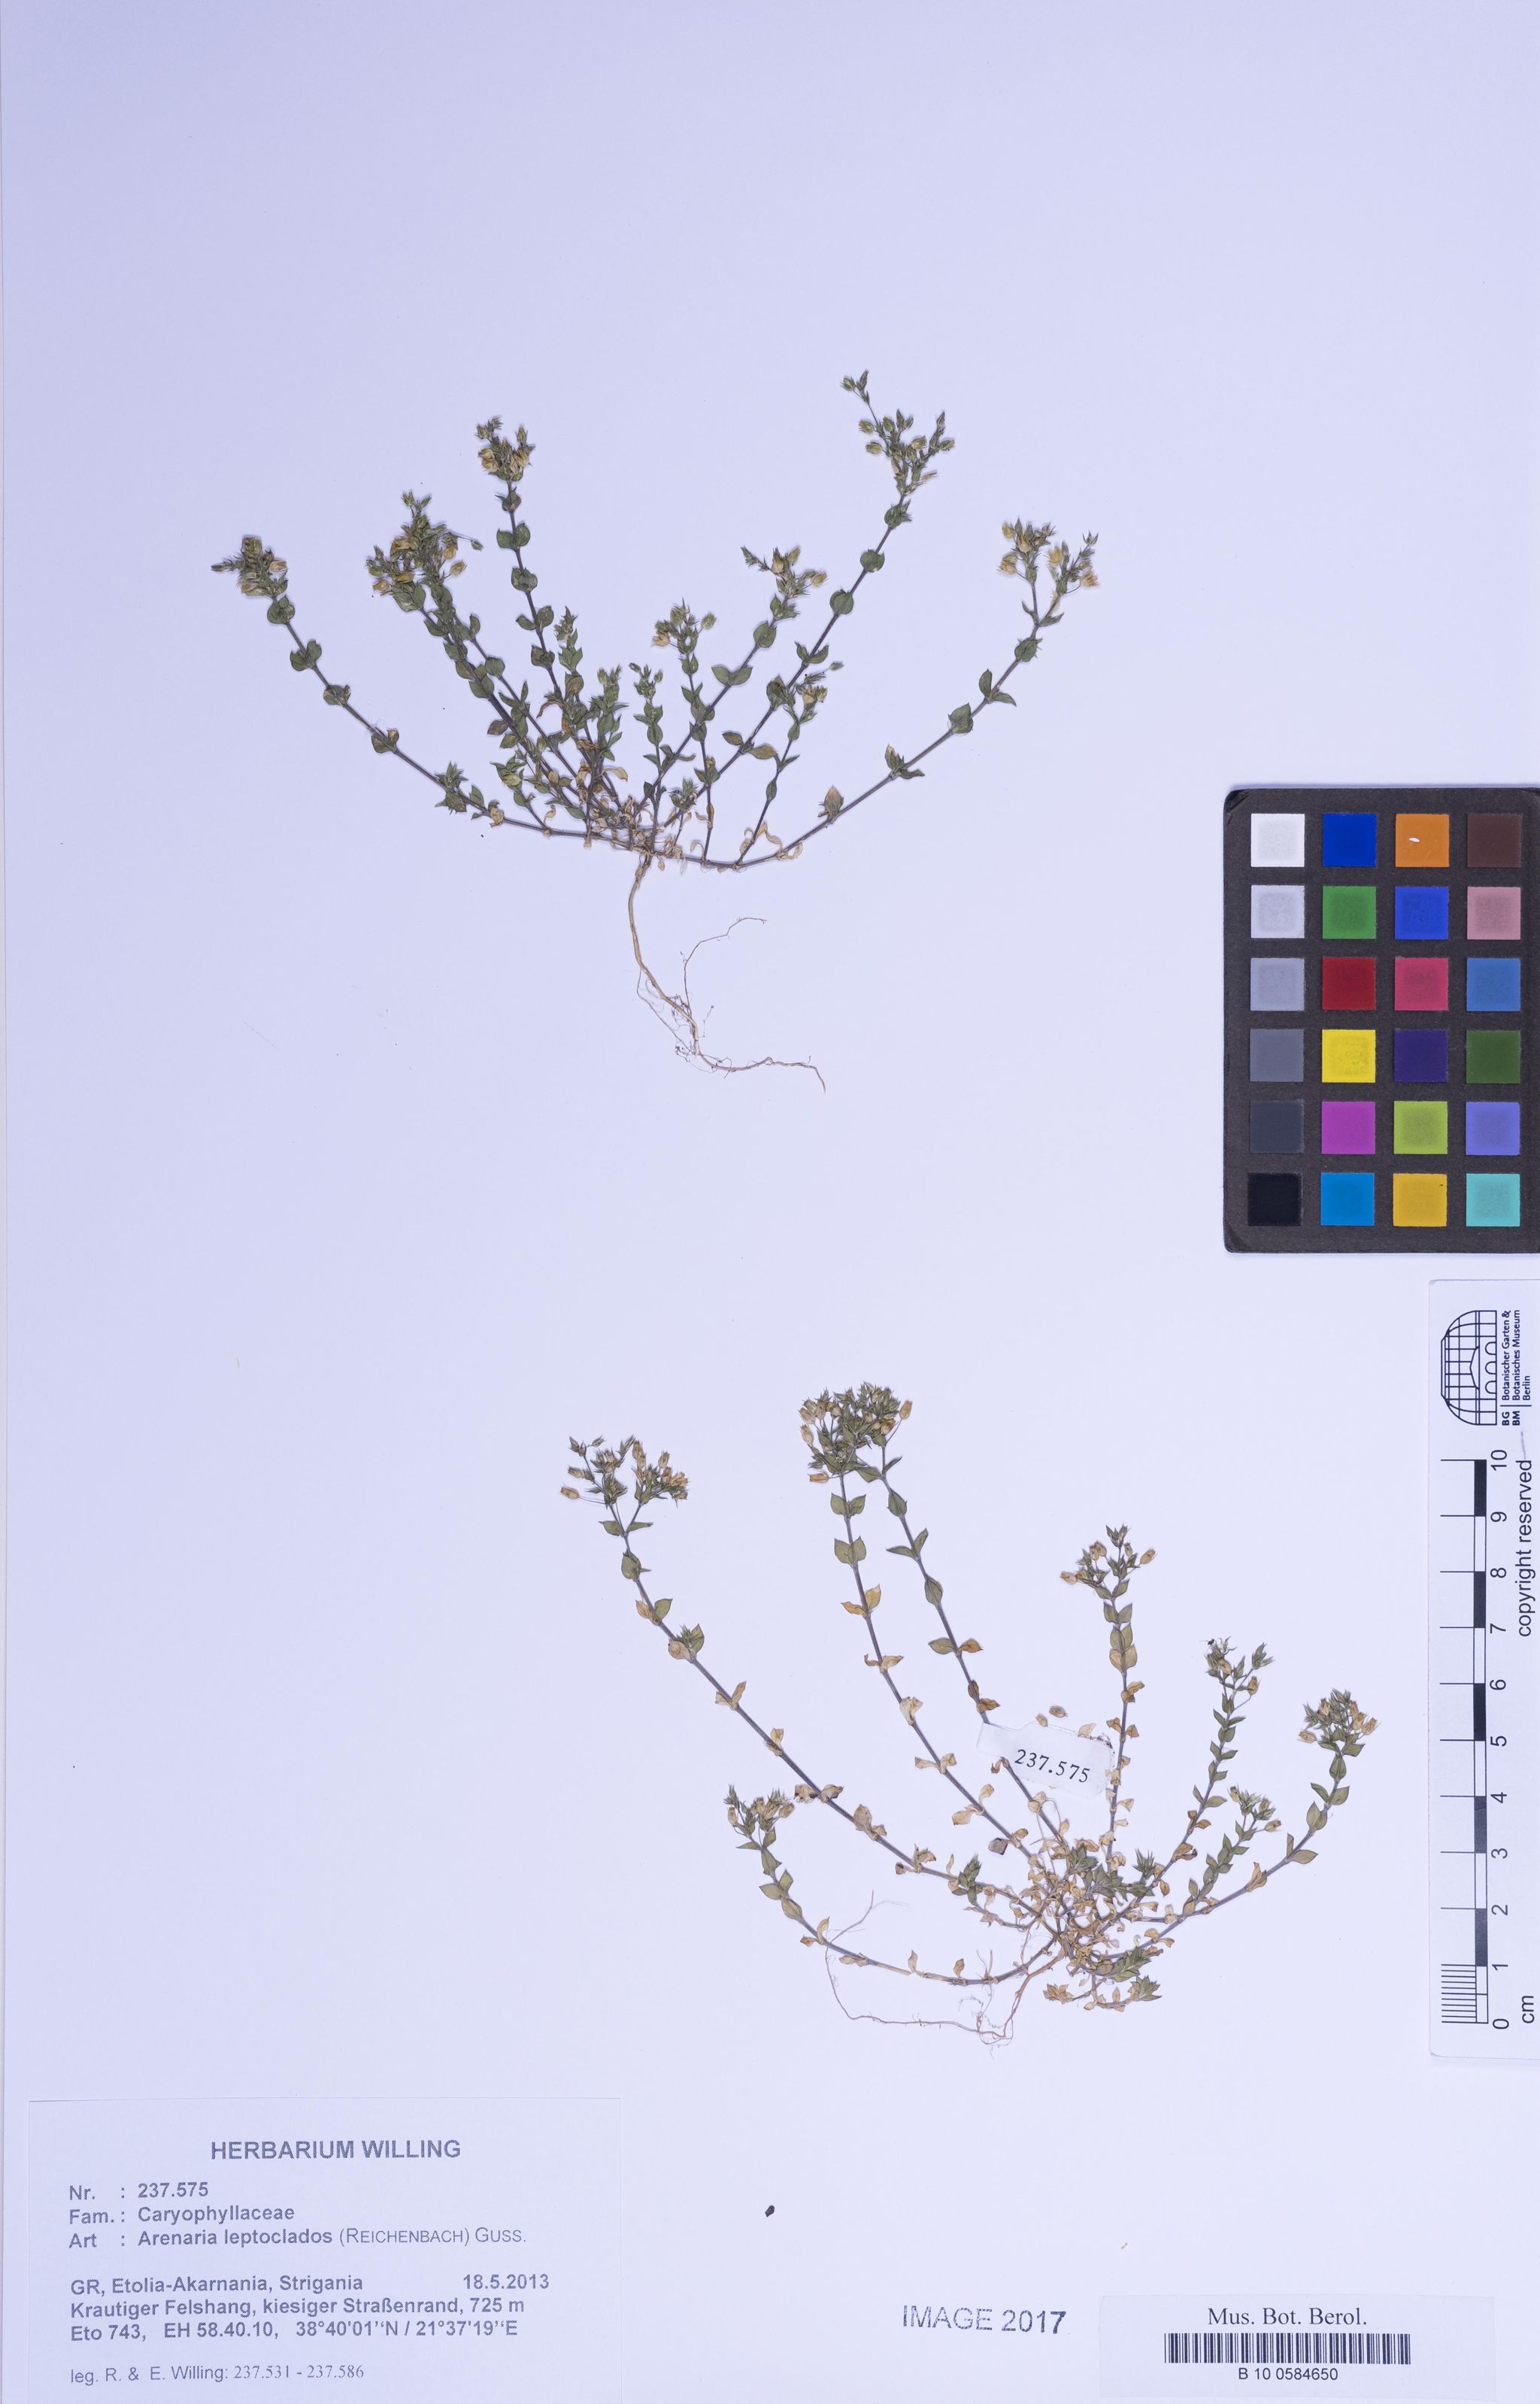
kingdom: Plantae
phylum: Tracheophyta
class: Magnoliopsida
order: Caryophyllales
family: Caryophyllaceae
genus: Arenaria
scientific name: Arenaria leptoclados
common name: Thyme-leaved sandwort
